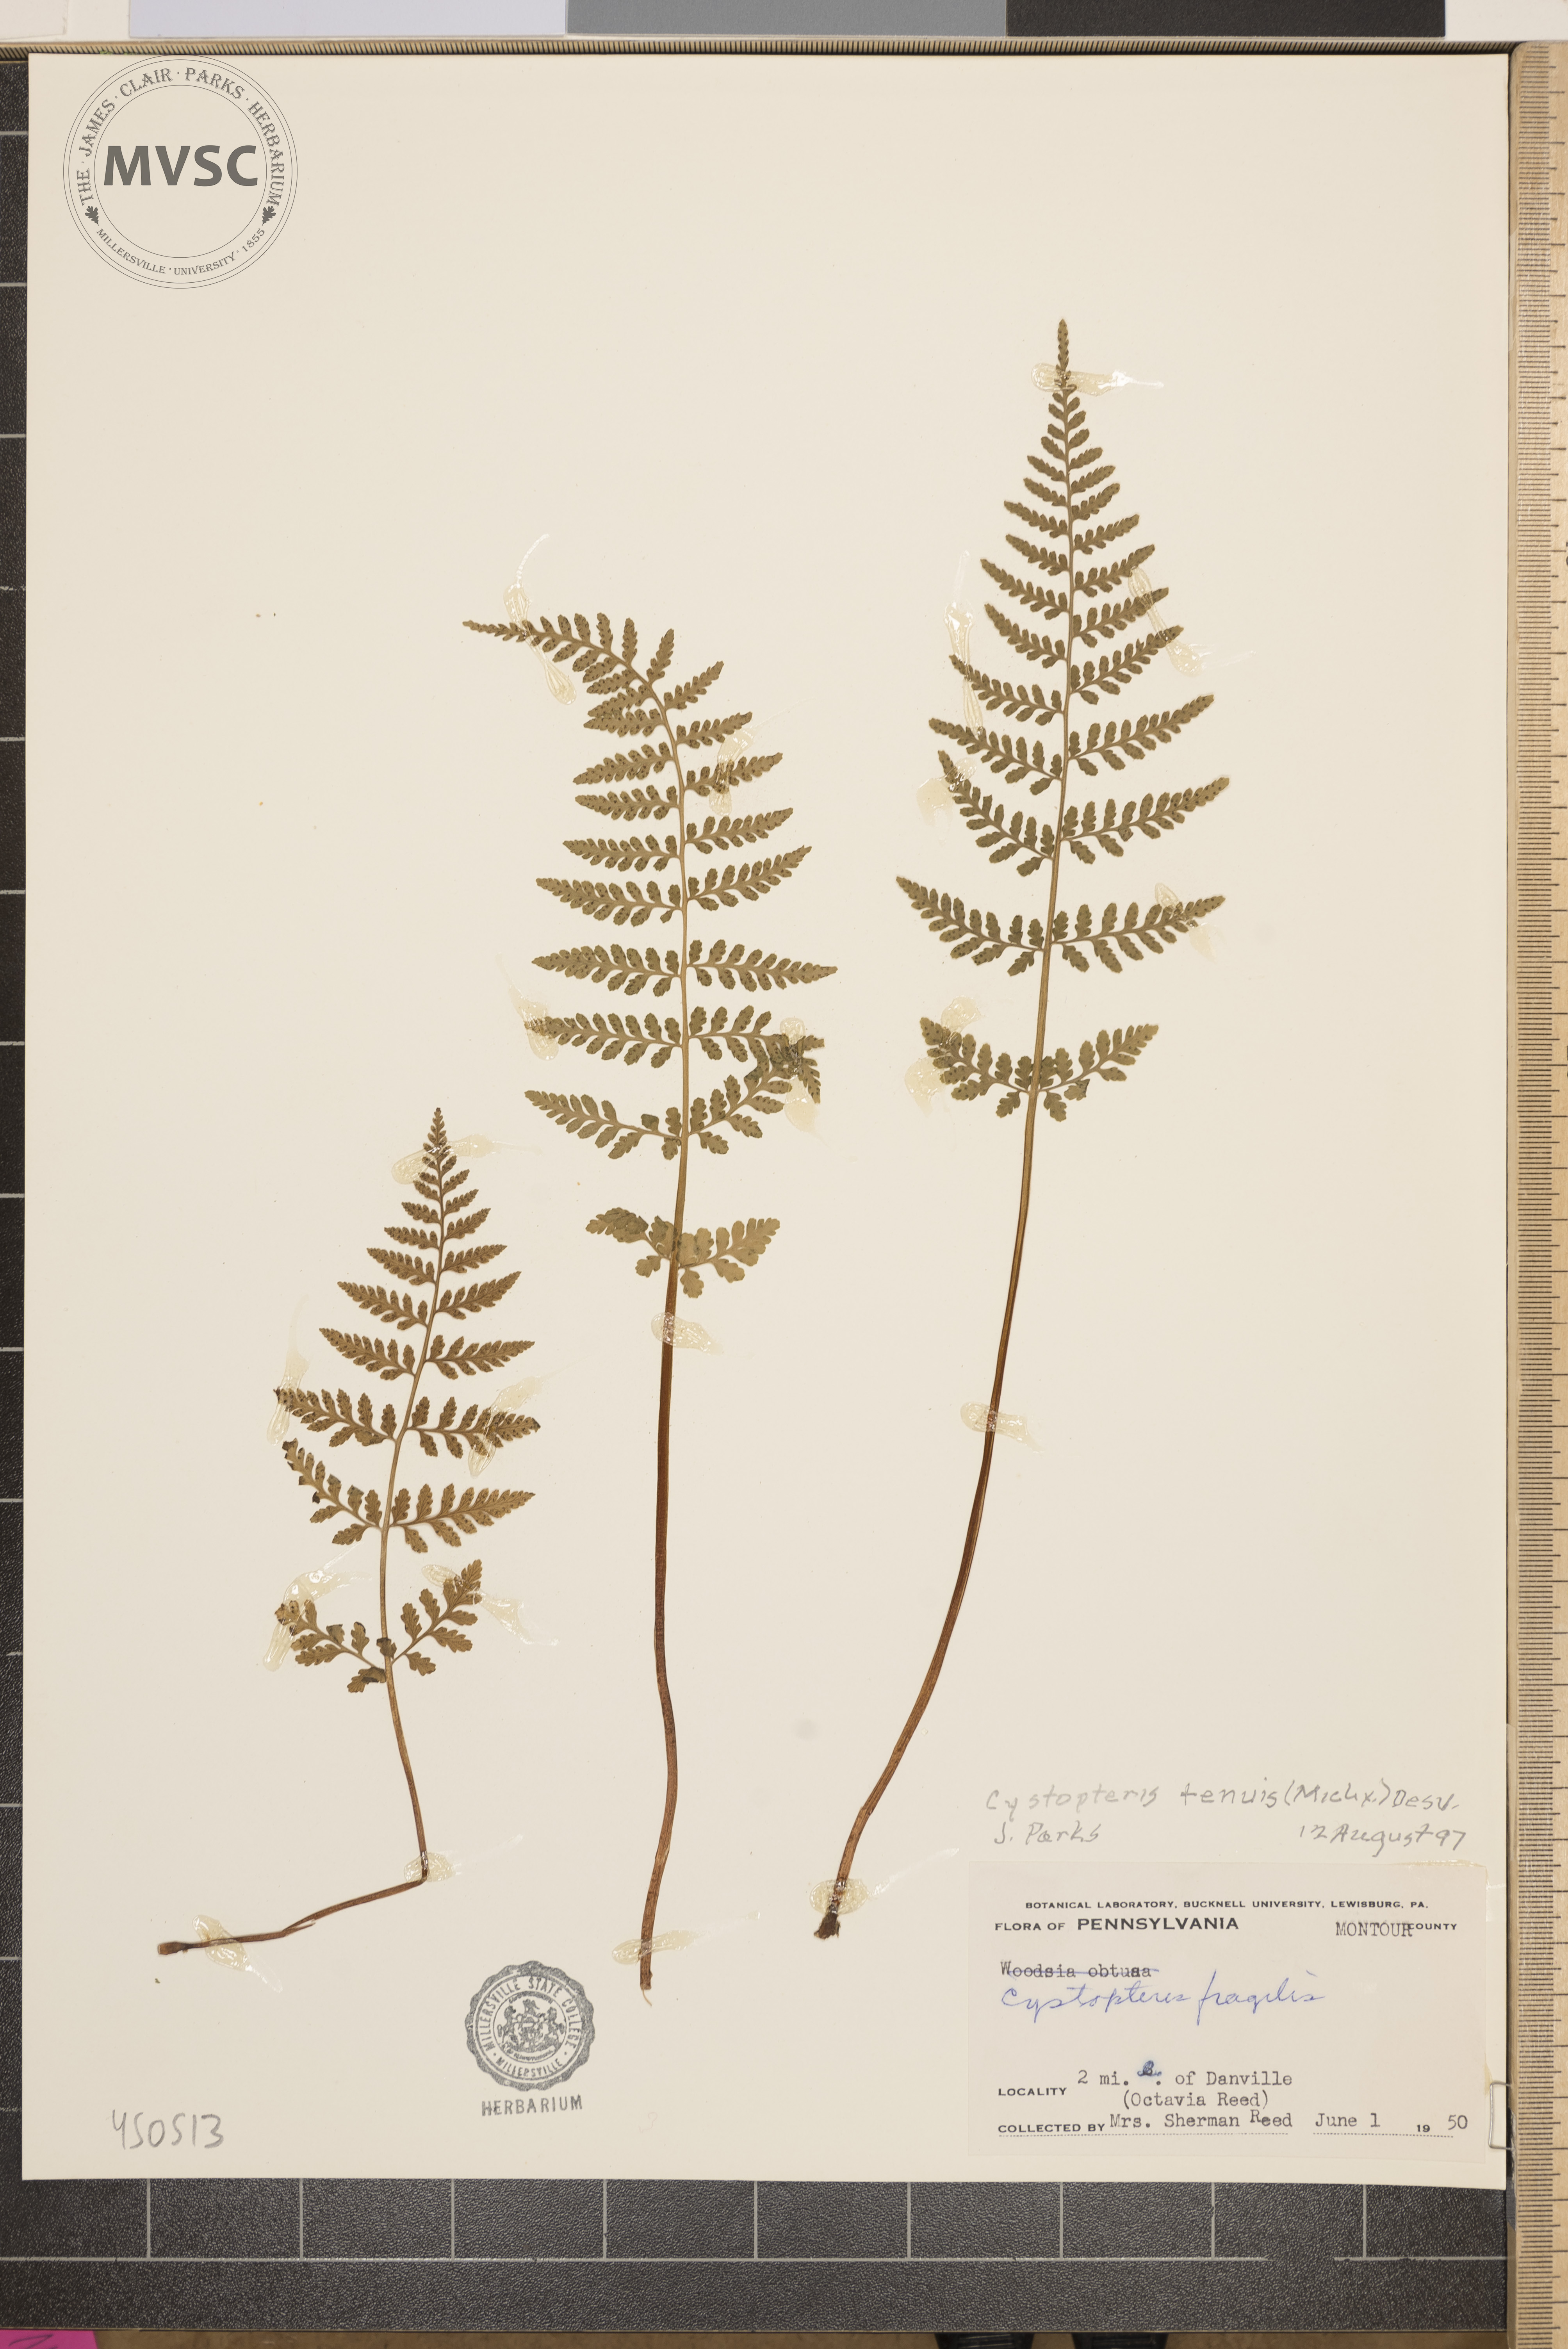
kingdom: Plantae
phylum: Tracheophyta
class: Polypodiopsida
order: Polypodiales
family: Cystopteridaceae
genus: Cystopteris
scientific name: Cystopteris tenuis
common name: Mackay's brittle fern
